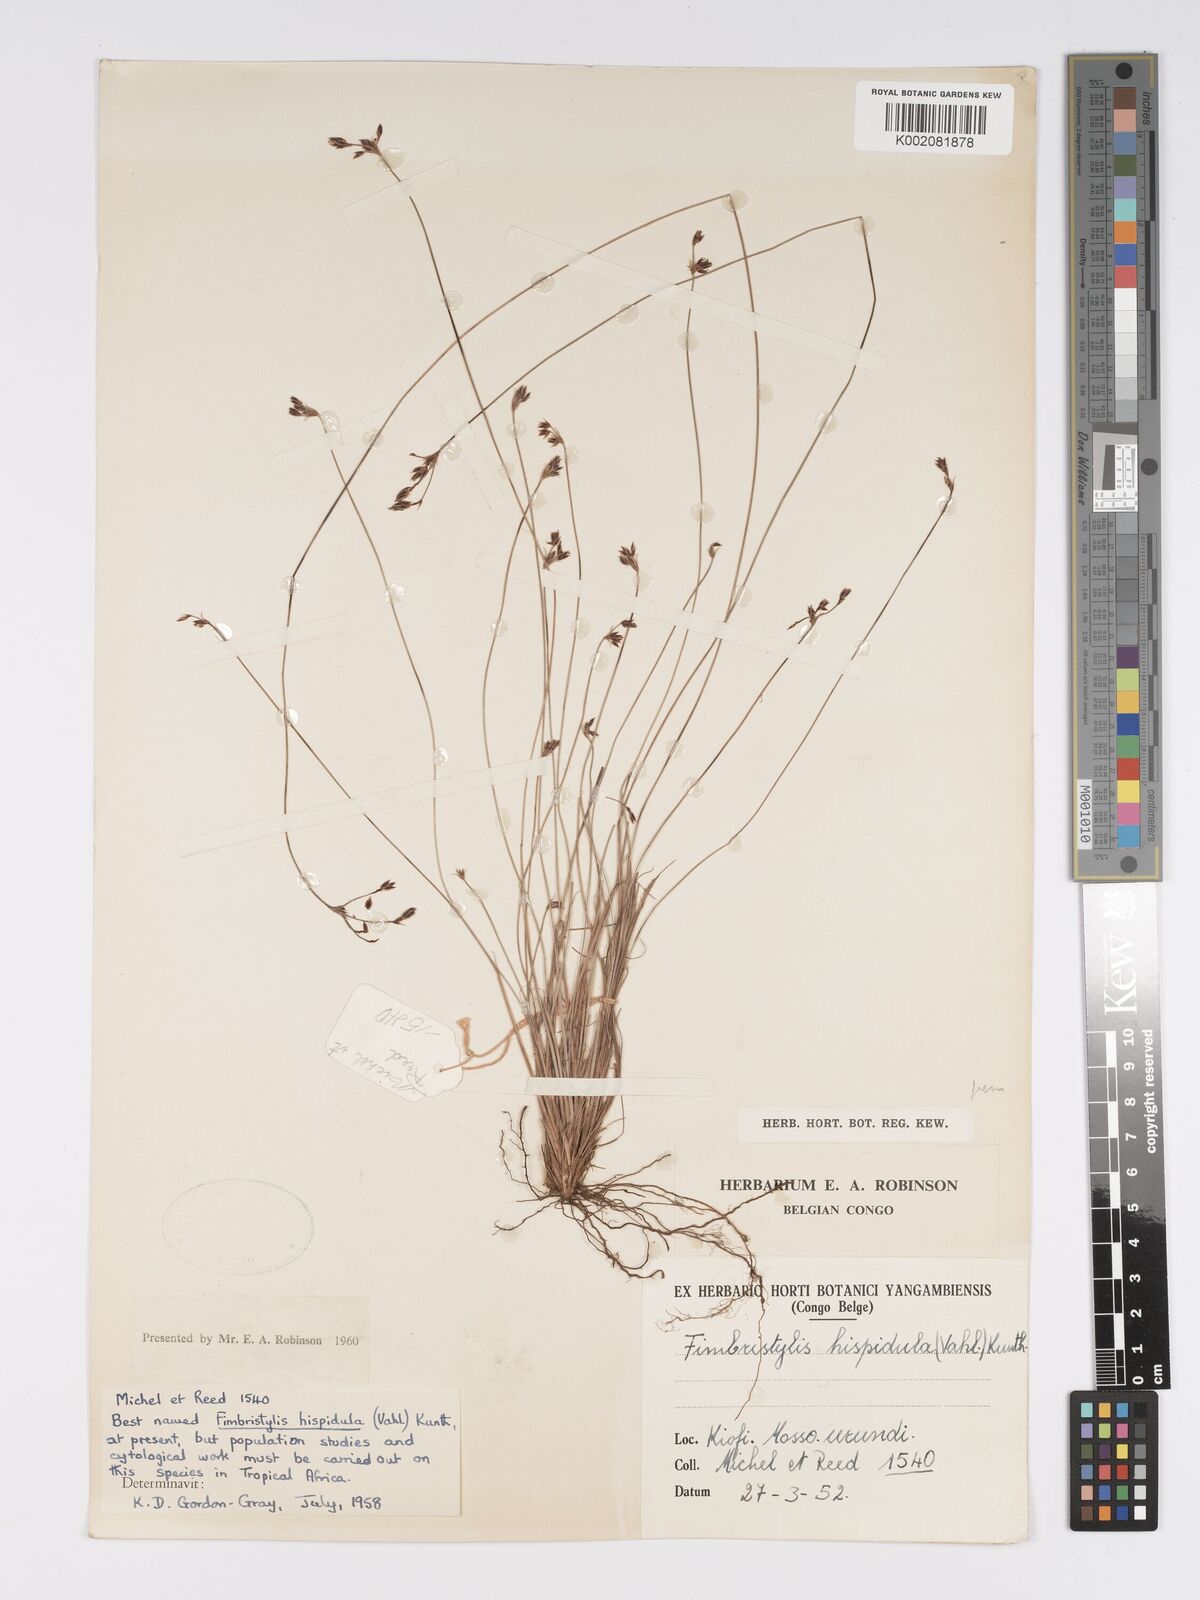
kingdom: Plantae
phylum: Tracheophyta
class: Liliopsida
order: Poales
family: Cyperaceae
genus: Bulbostylis
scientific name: Bulbostylis hispidula
